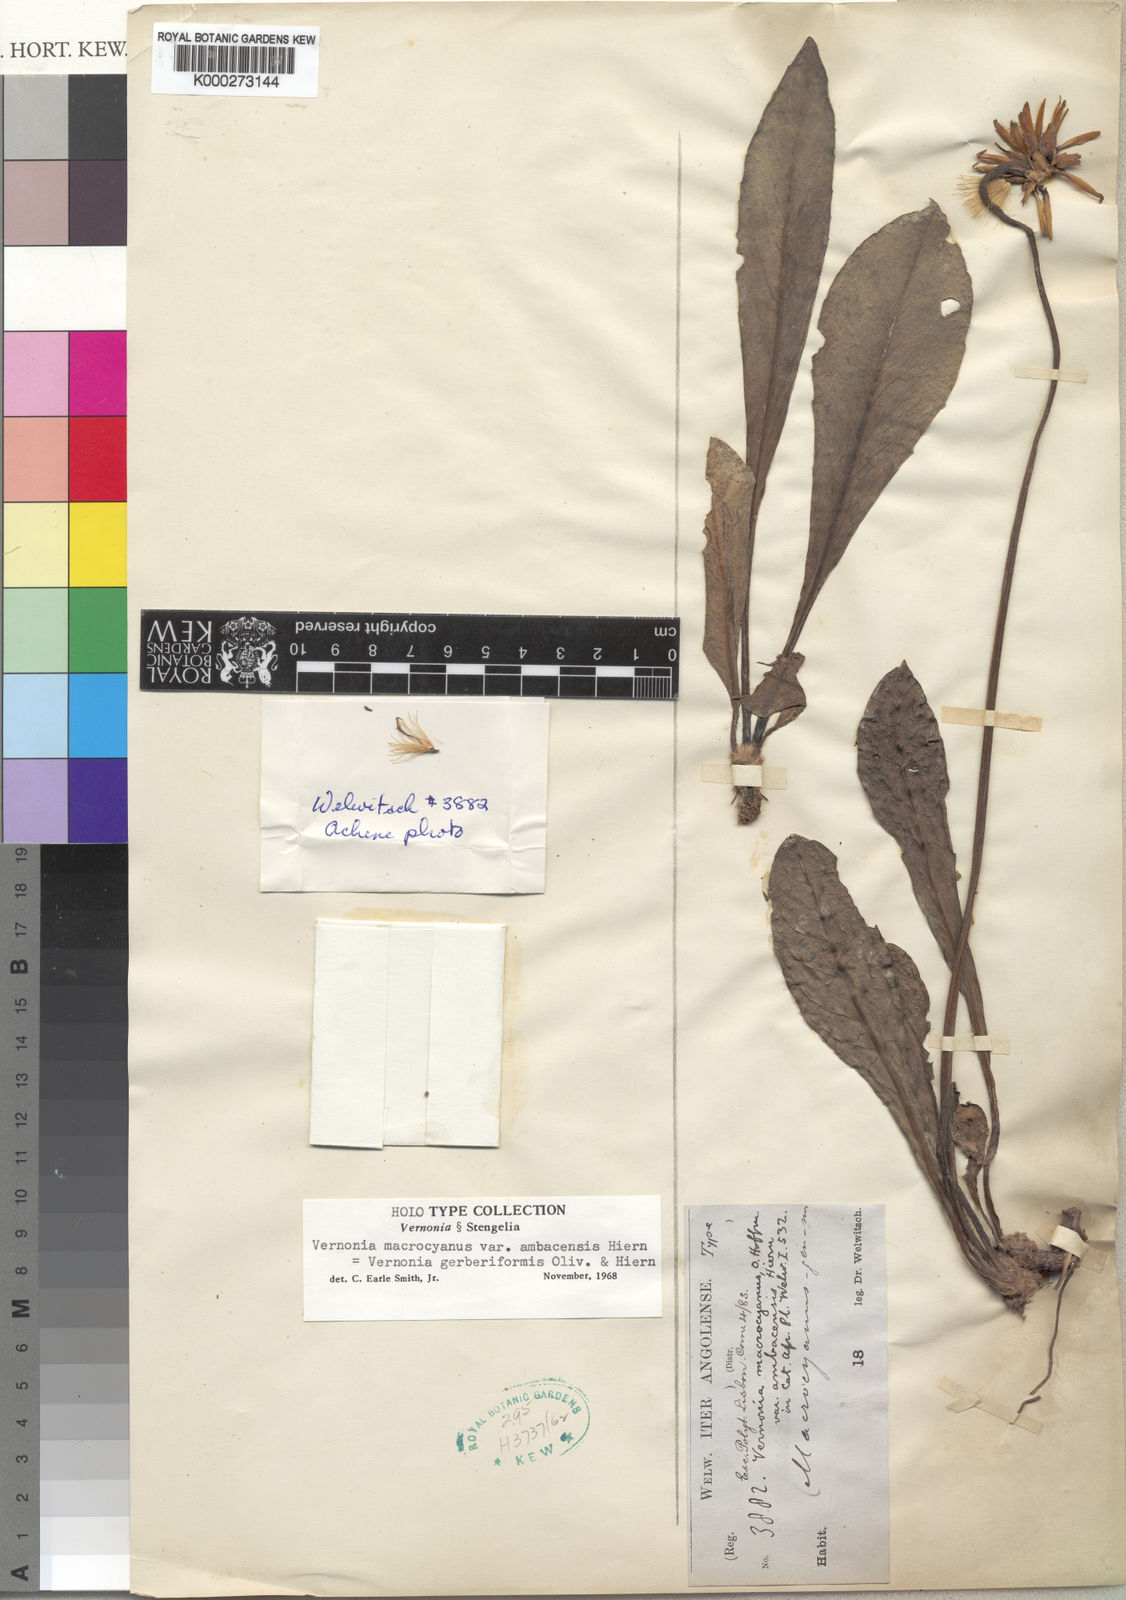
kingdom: Plantae
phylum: Tracheophyta
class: Magnoliopsida
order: Asterales
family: Asteraceae
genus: Linzia
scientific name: Linzia gerberiformis
